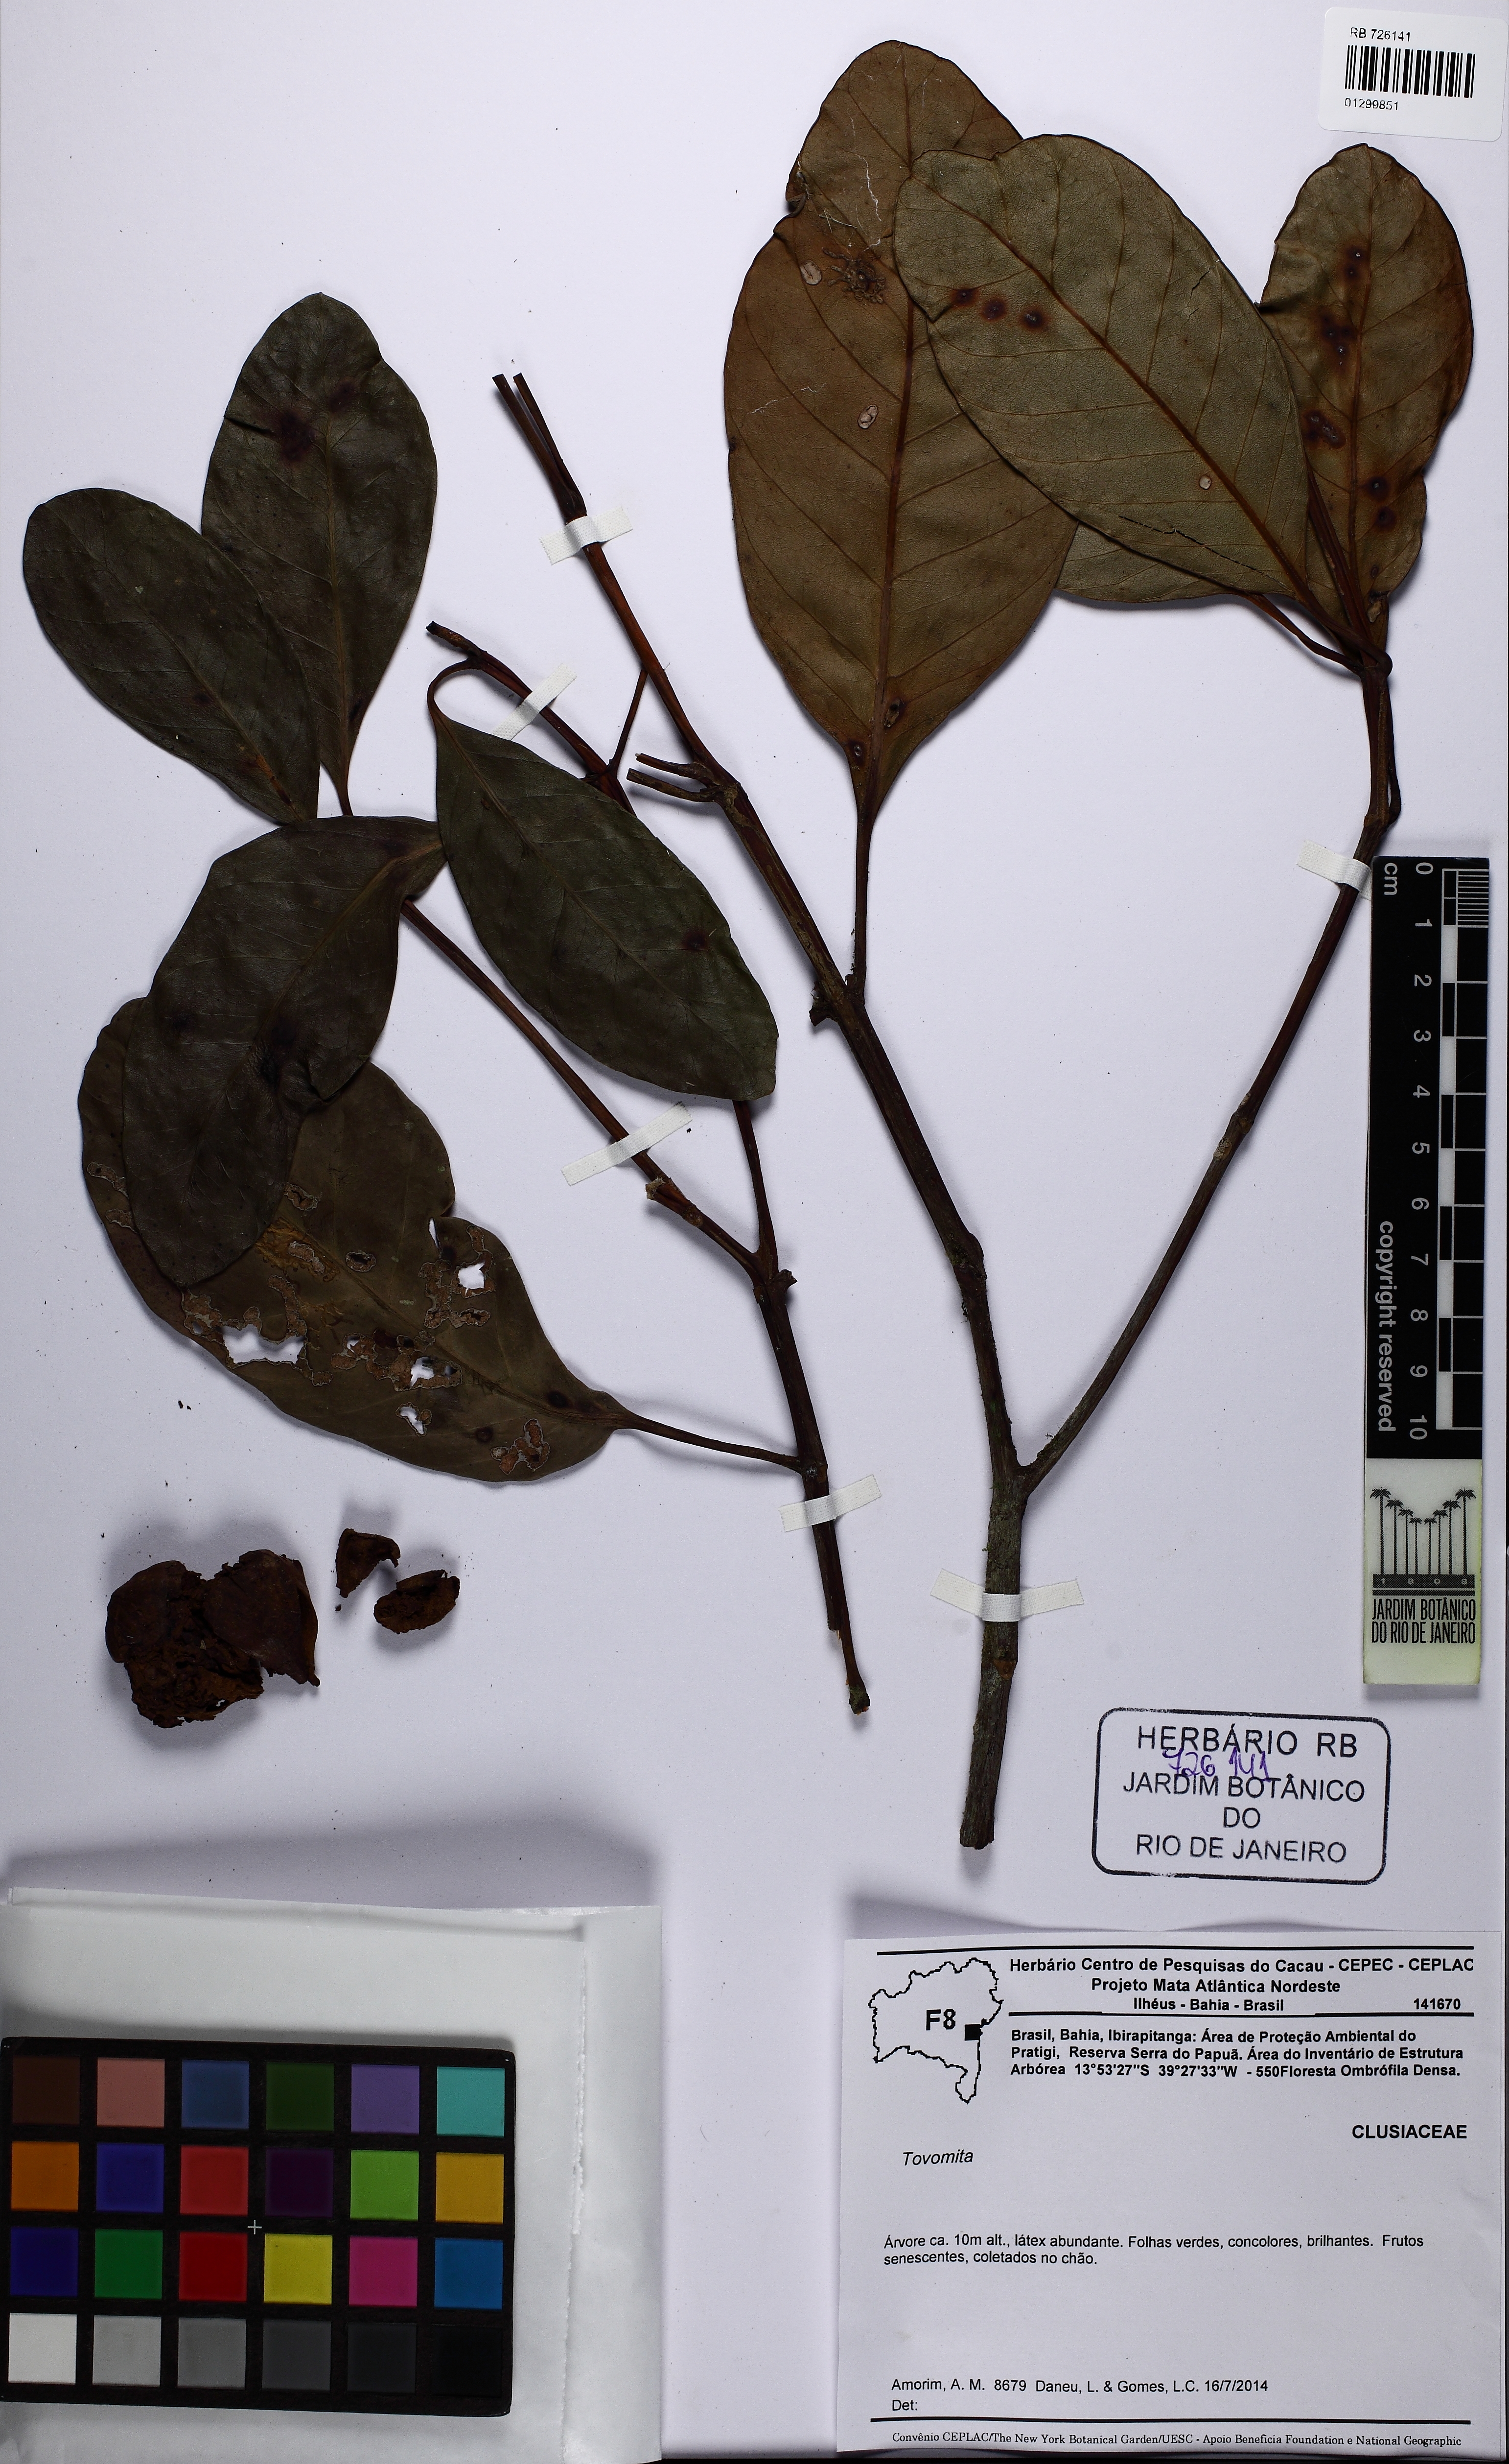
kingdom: Plantae
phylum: Tracheophyta
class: Magnoliopsida
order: Malpighiales
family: Clusiaceae
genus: Tovomita
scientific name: Tovomita
